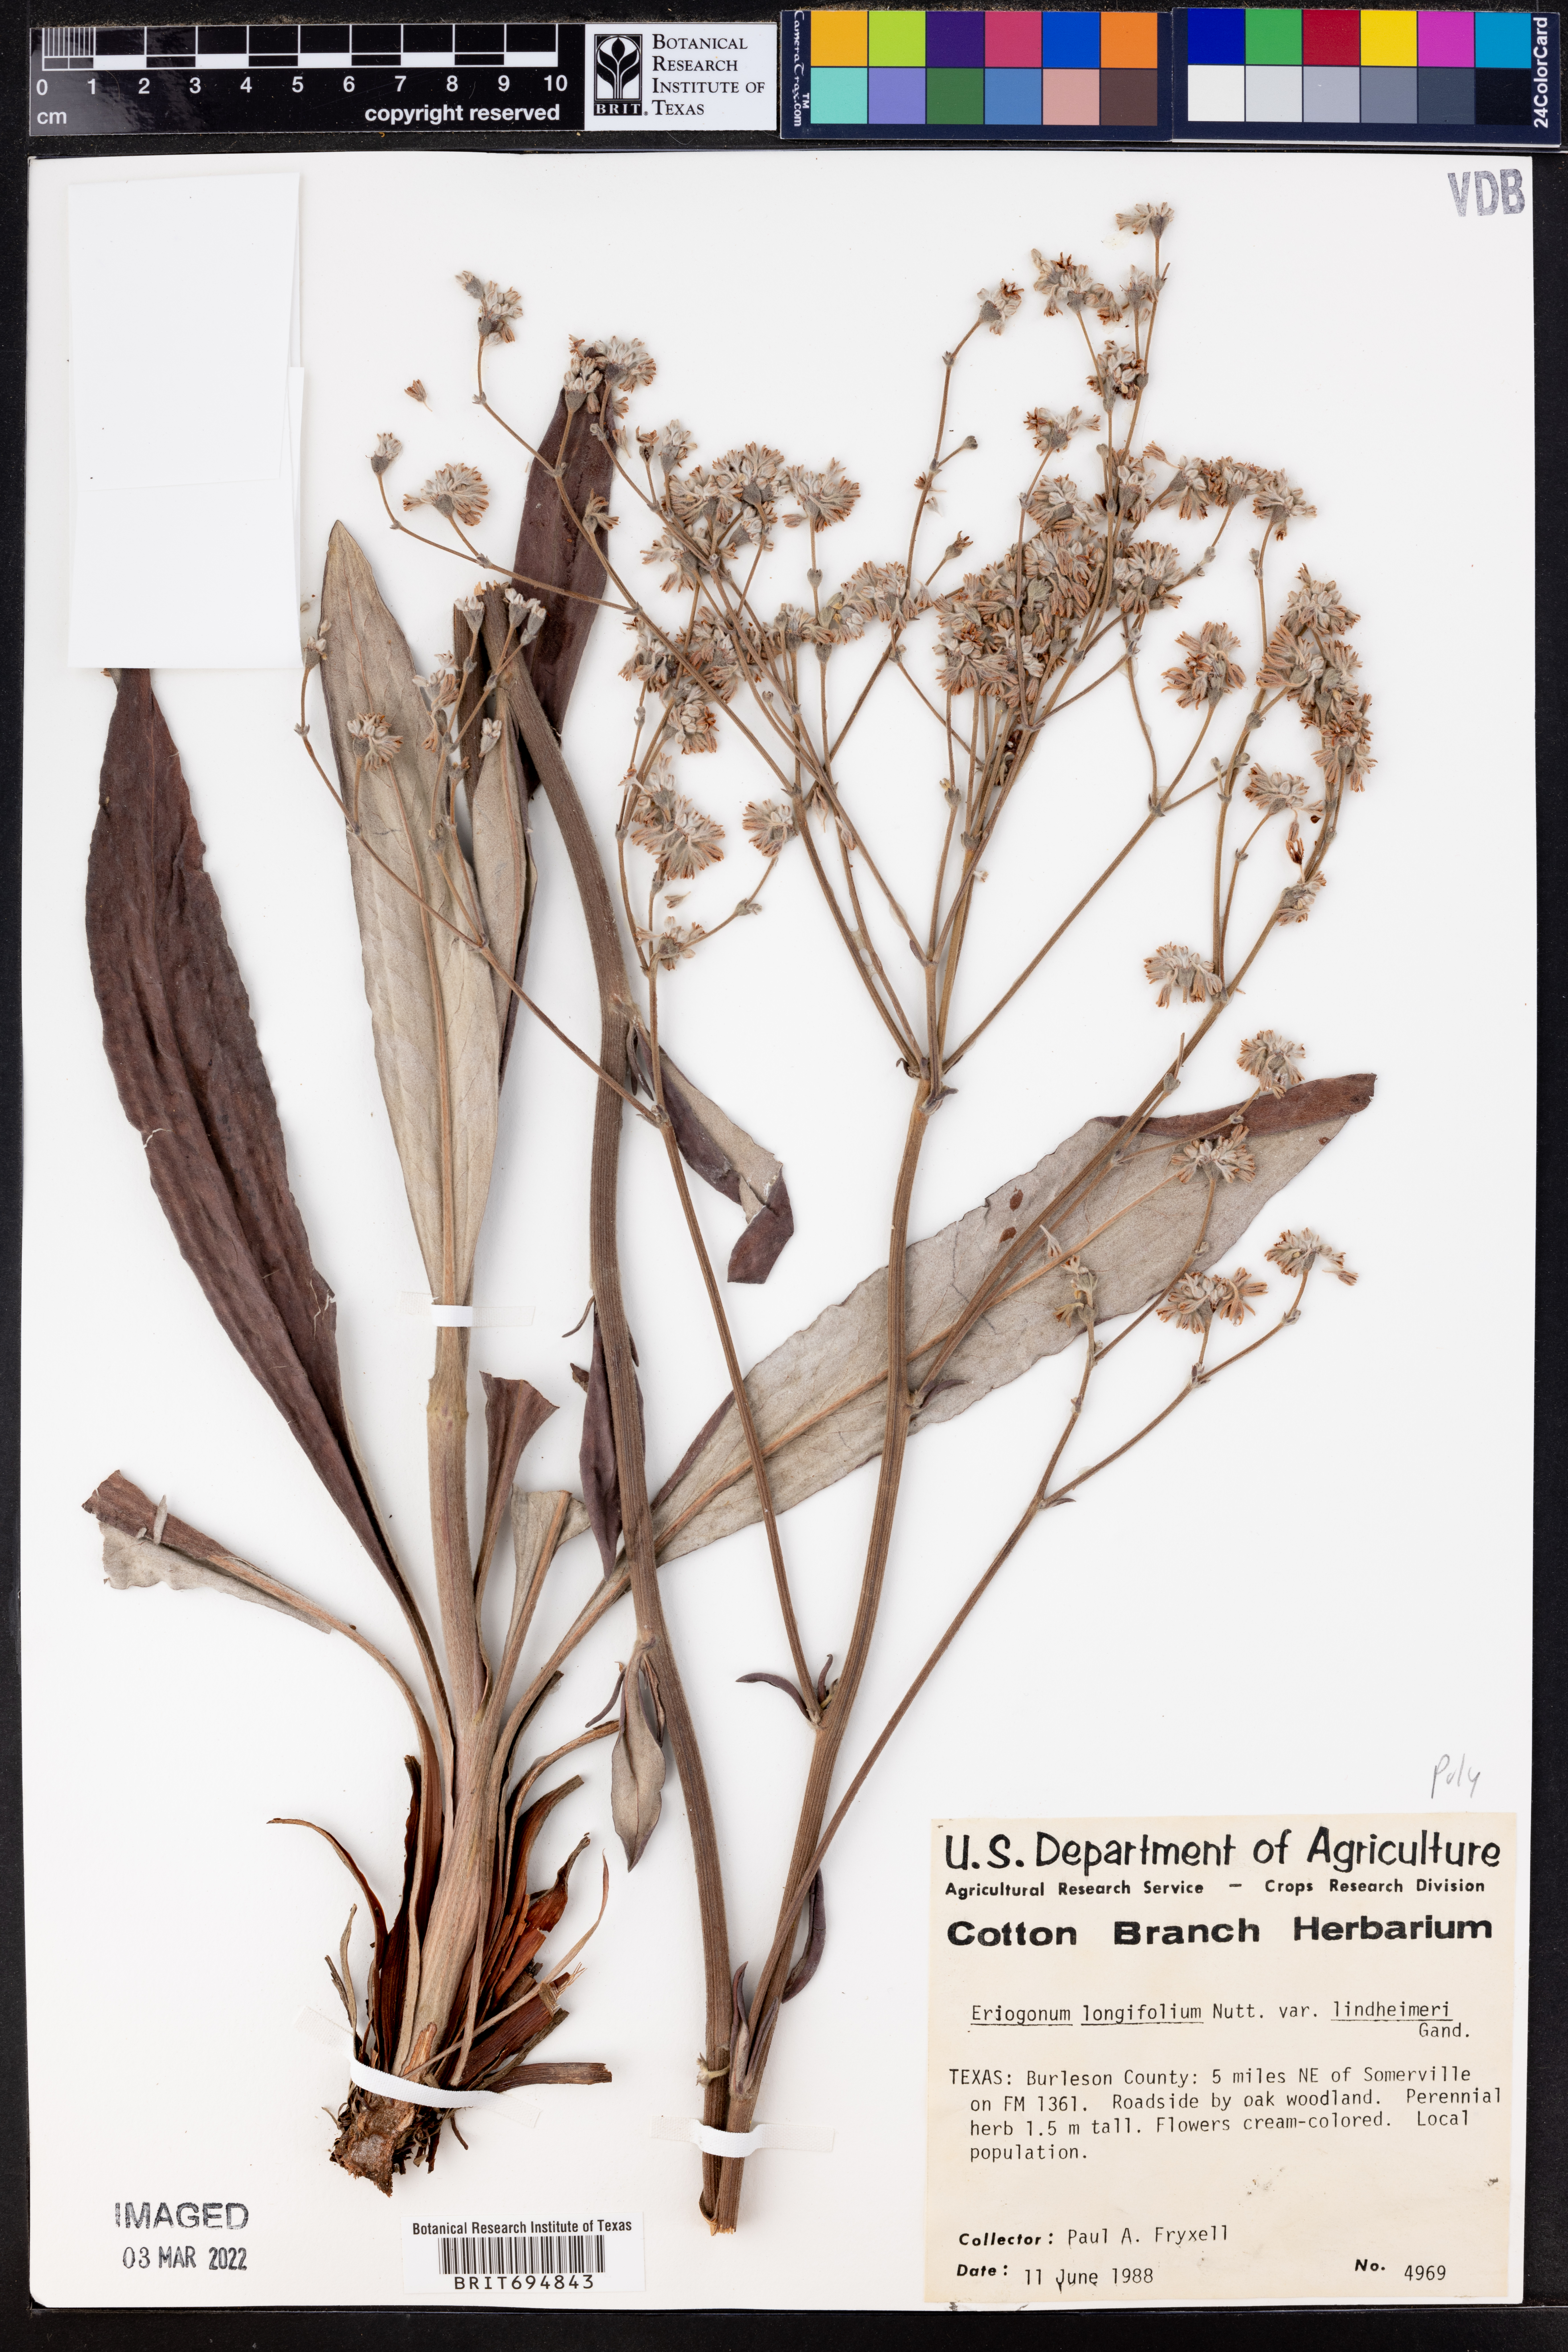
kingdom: Plantae
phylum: Tracheophyta
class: Magnoliopsida
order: Caryophyllales
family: Polygonaceae
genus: Eriogonum
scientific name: Eriogonum longifolium
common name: Longleaf wild buckwheat
